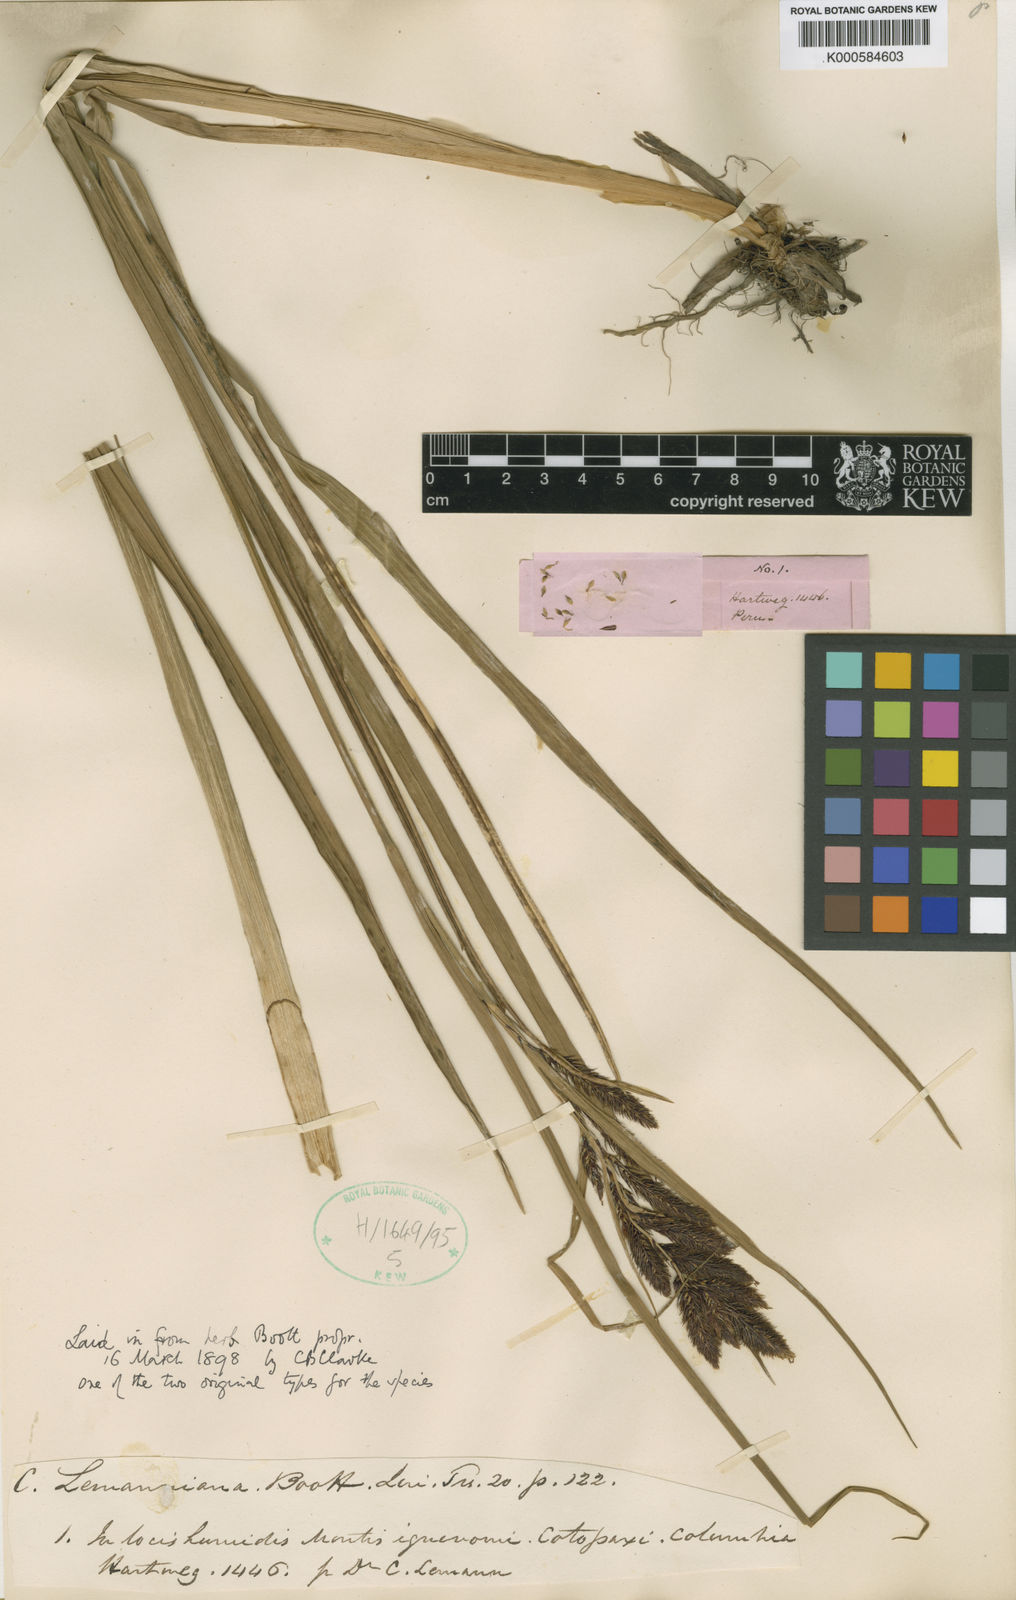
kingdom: Plantae
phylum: Tracheophyta
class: Liliopsida
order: Poales
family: Cyperaceae
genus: Carex
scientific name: Carex
